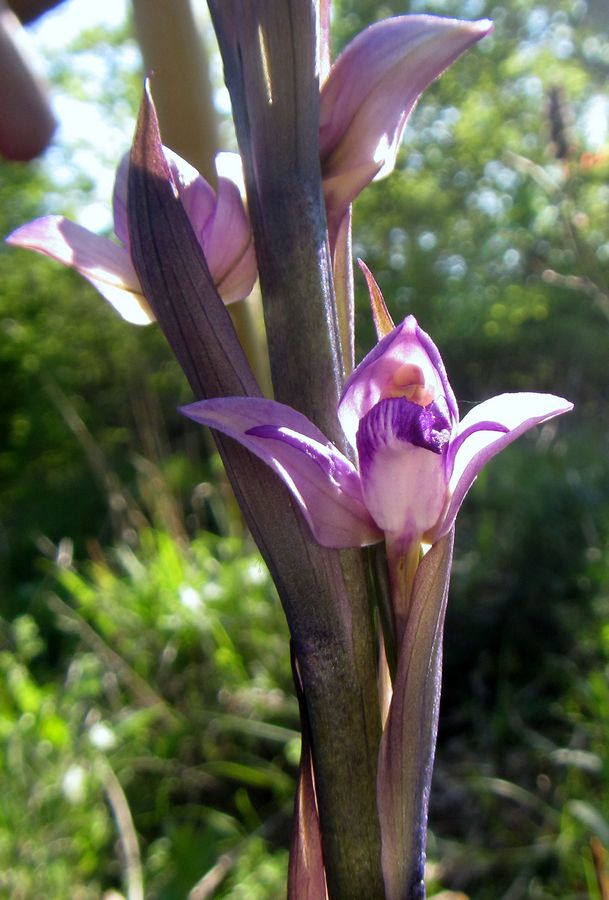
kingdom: Plantae
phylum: Tracheophyta
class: Liliopsida
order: Asparagales
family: Orchidaceae
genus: Limodorum
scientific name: Limodorum abortivum
